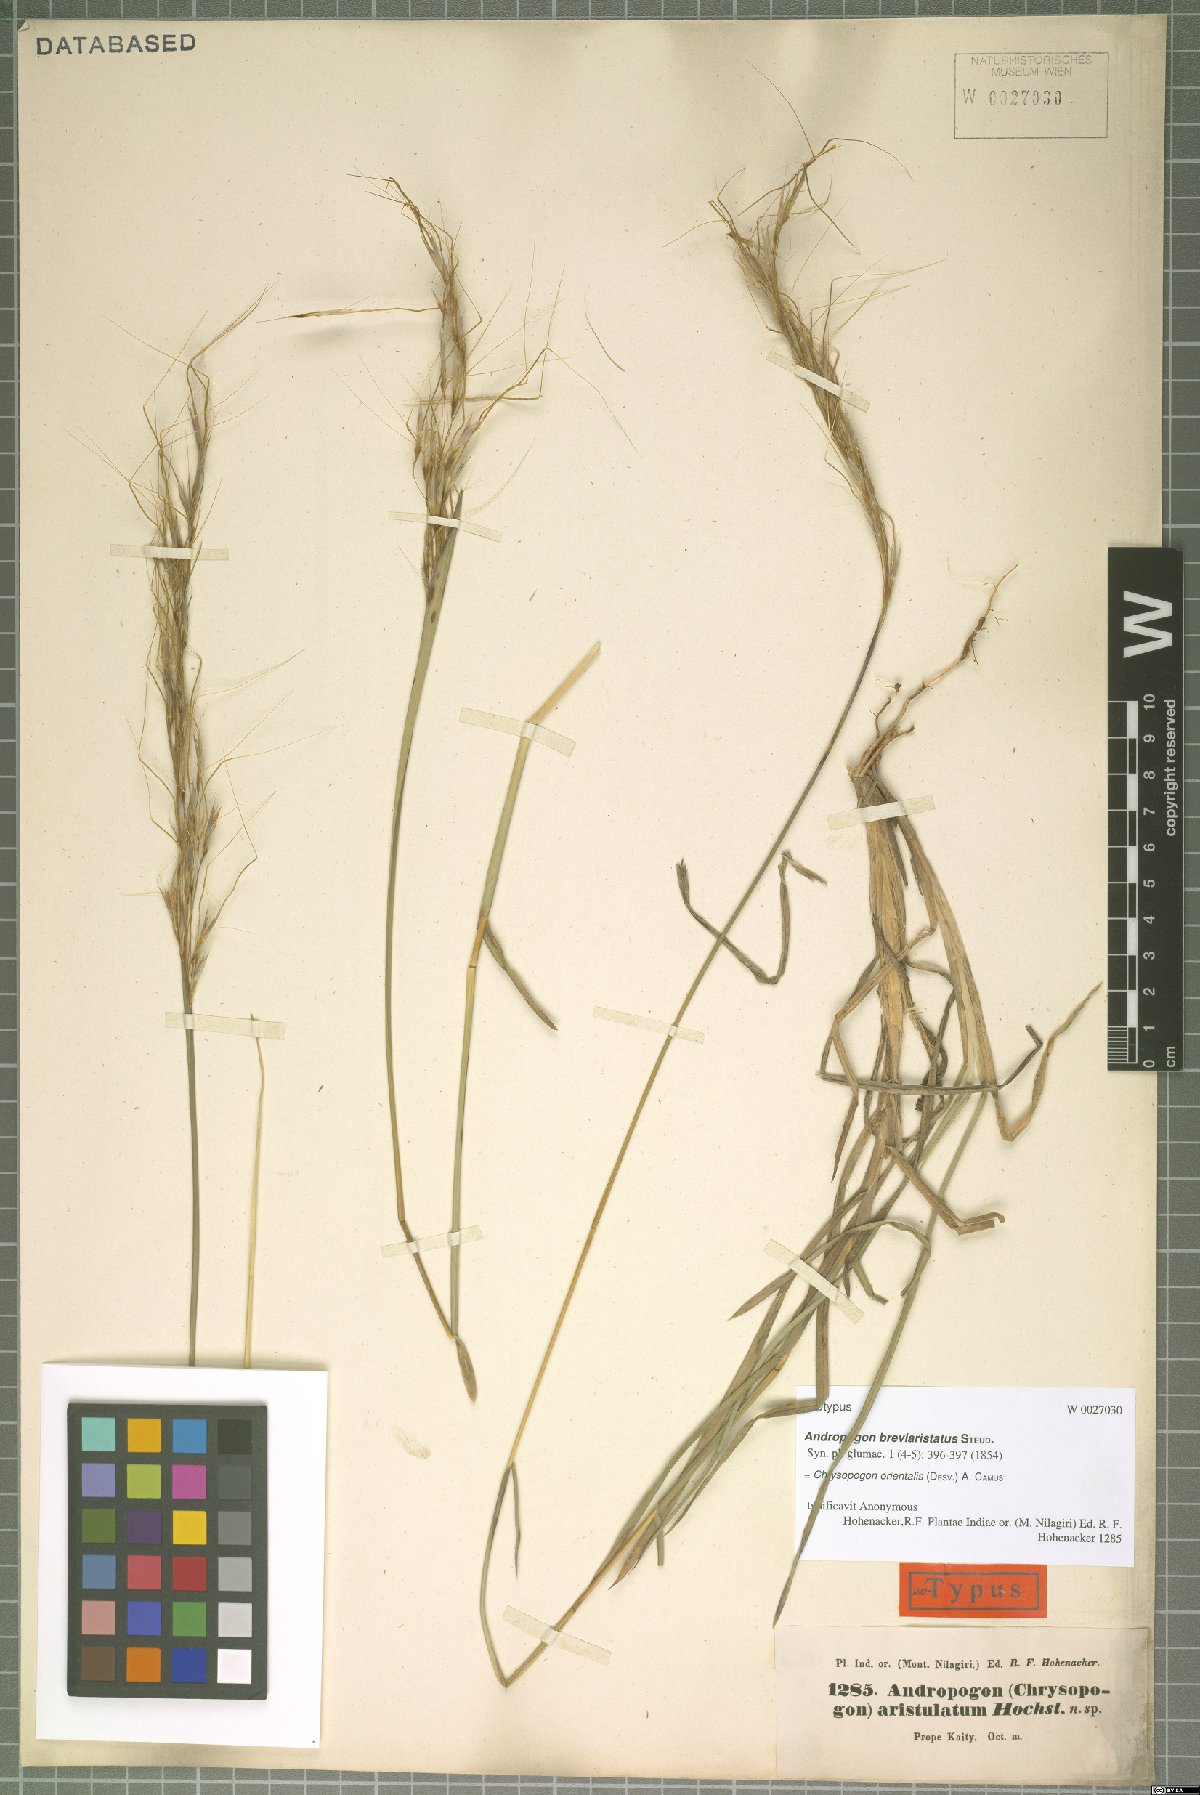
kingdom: Plantae
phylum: Tracheophyta
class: Liliopsida
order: Poales
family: Poaceae
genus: Chrysopogon
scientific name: Chrysopogon orientalis
